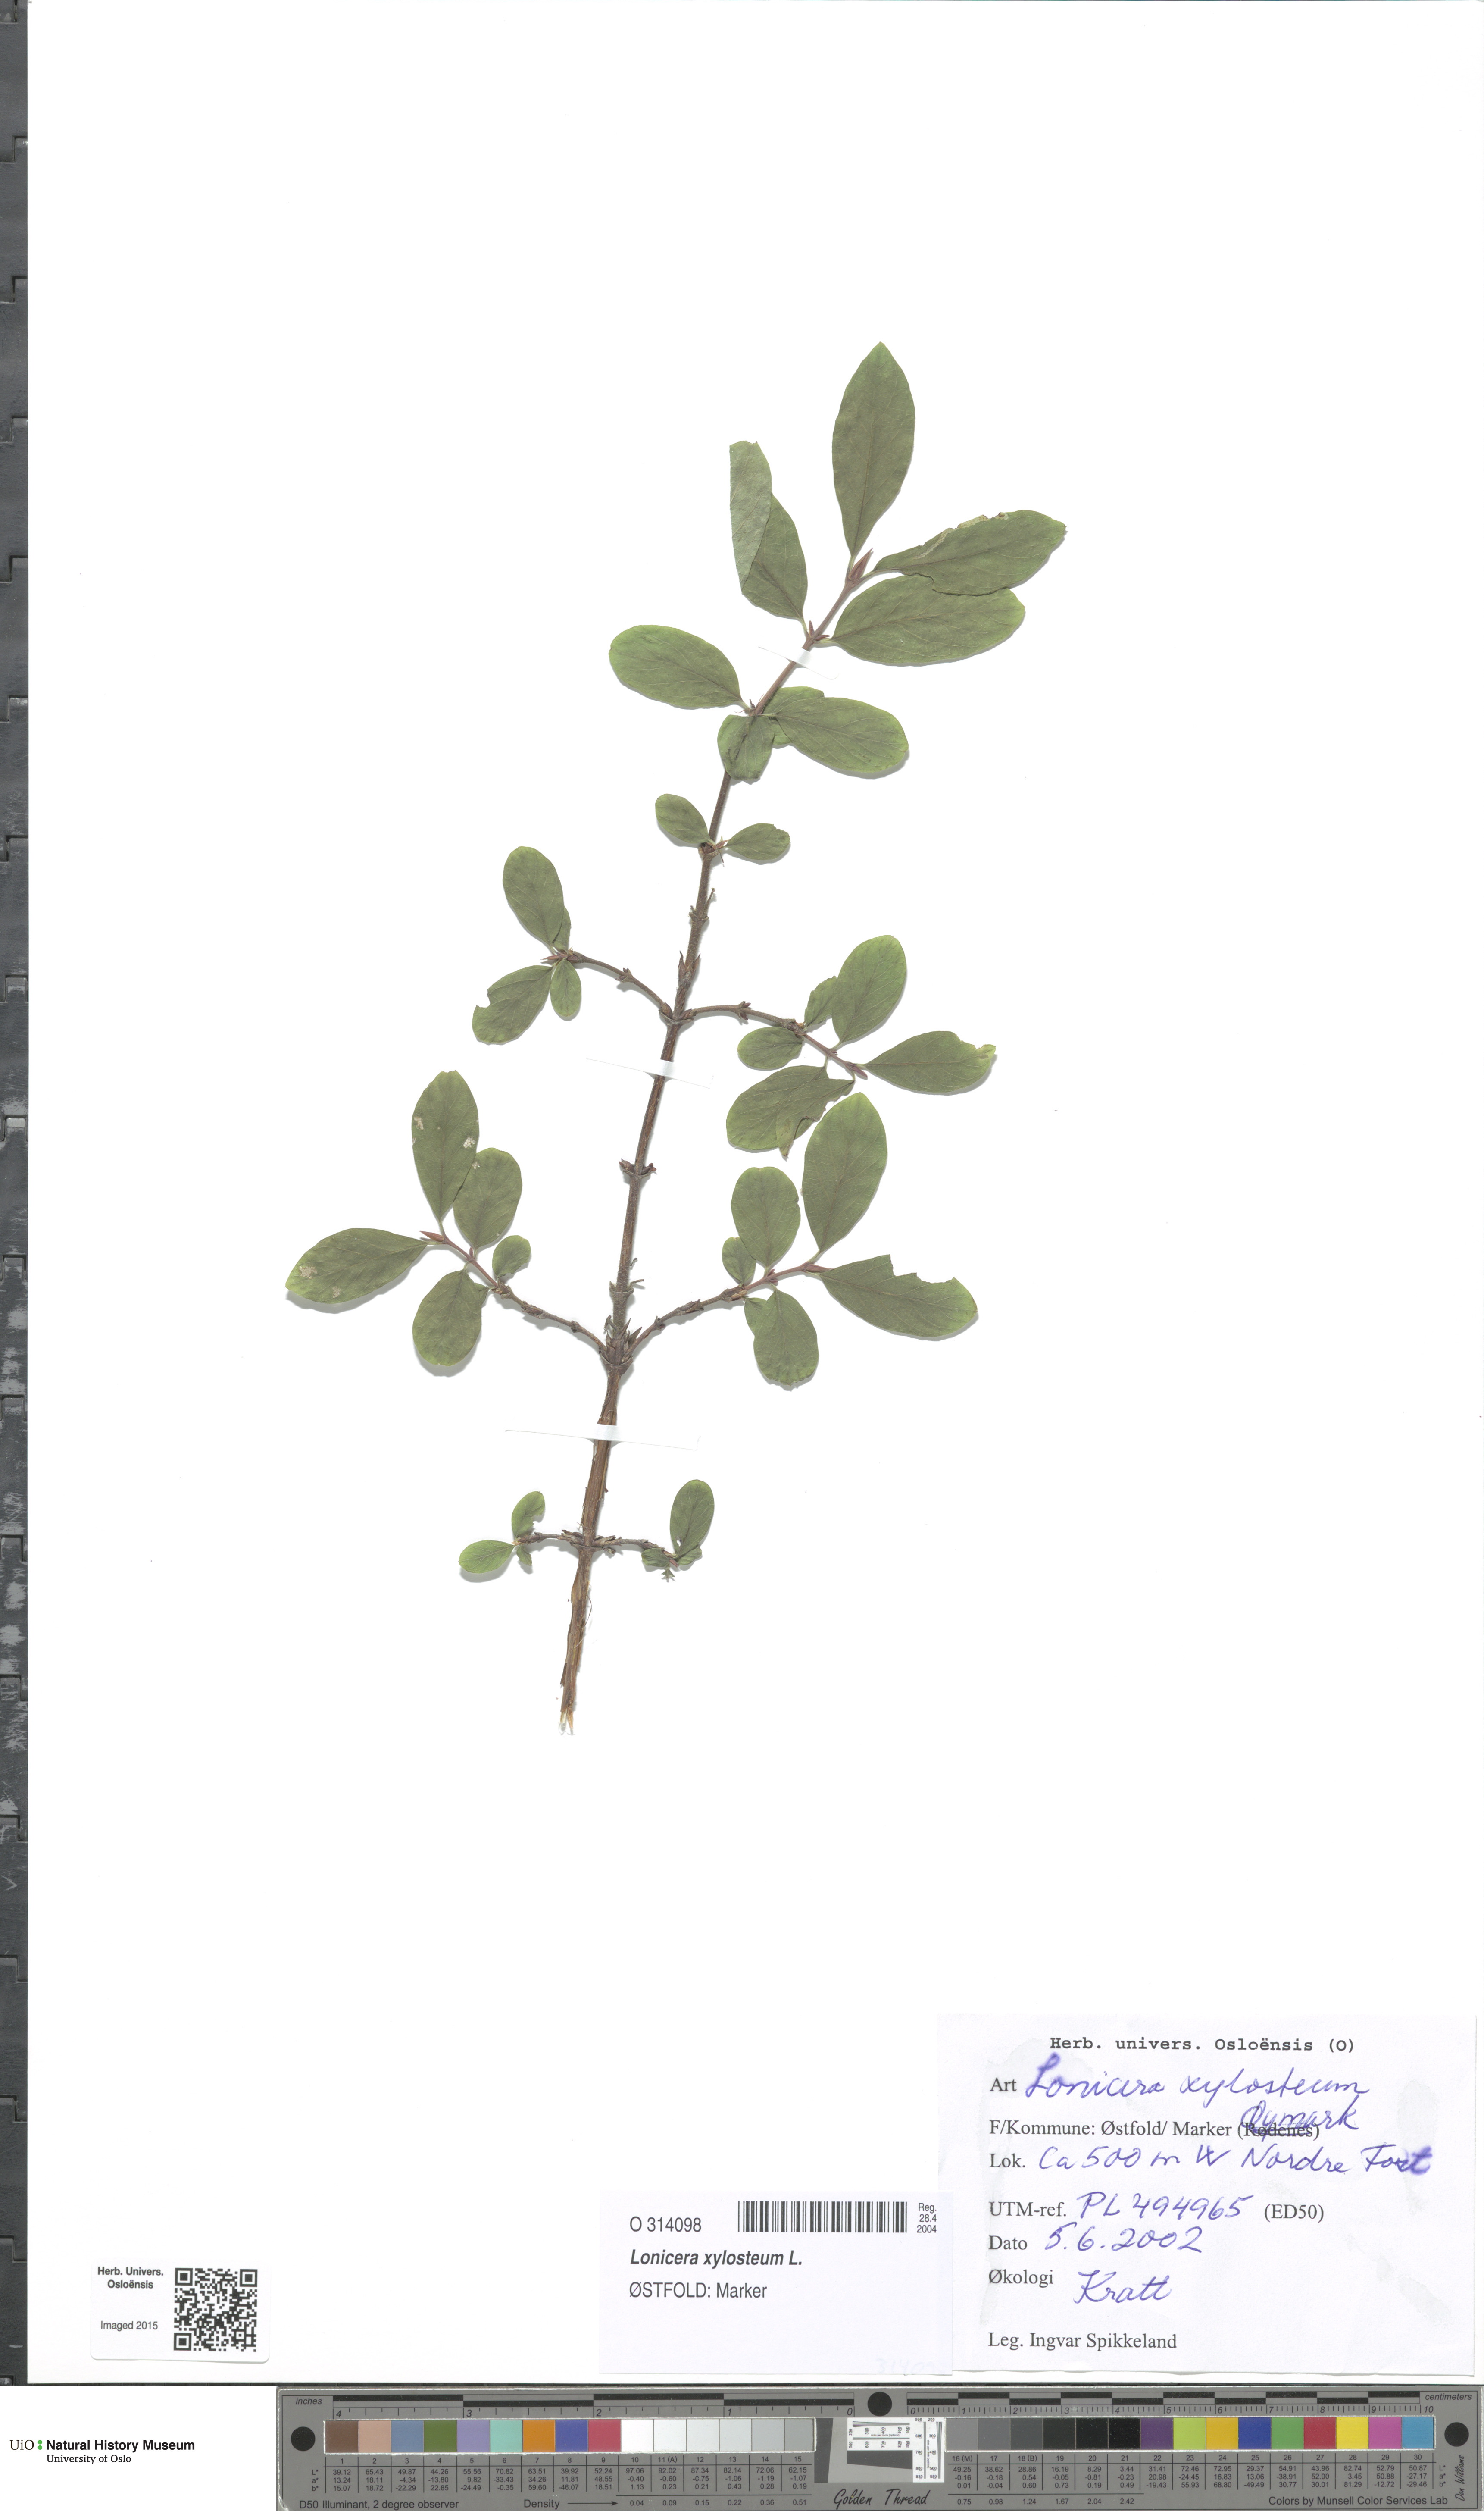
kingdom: Plantae
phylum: Tracheophyta
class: Magnoliopsida
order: Dipsacales
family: Caprifoliaceae
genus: Lonicera
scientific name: Lonicera xylosteum
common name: Fly honeysuckle
